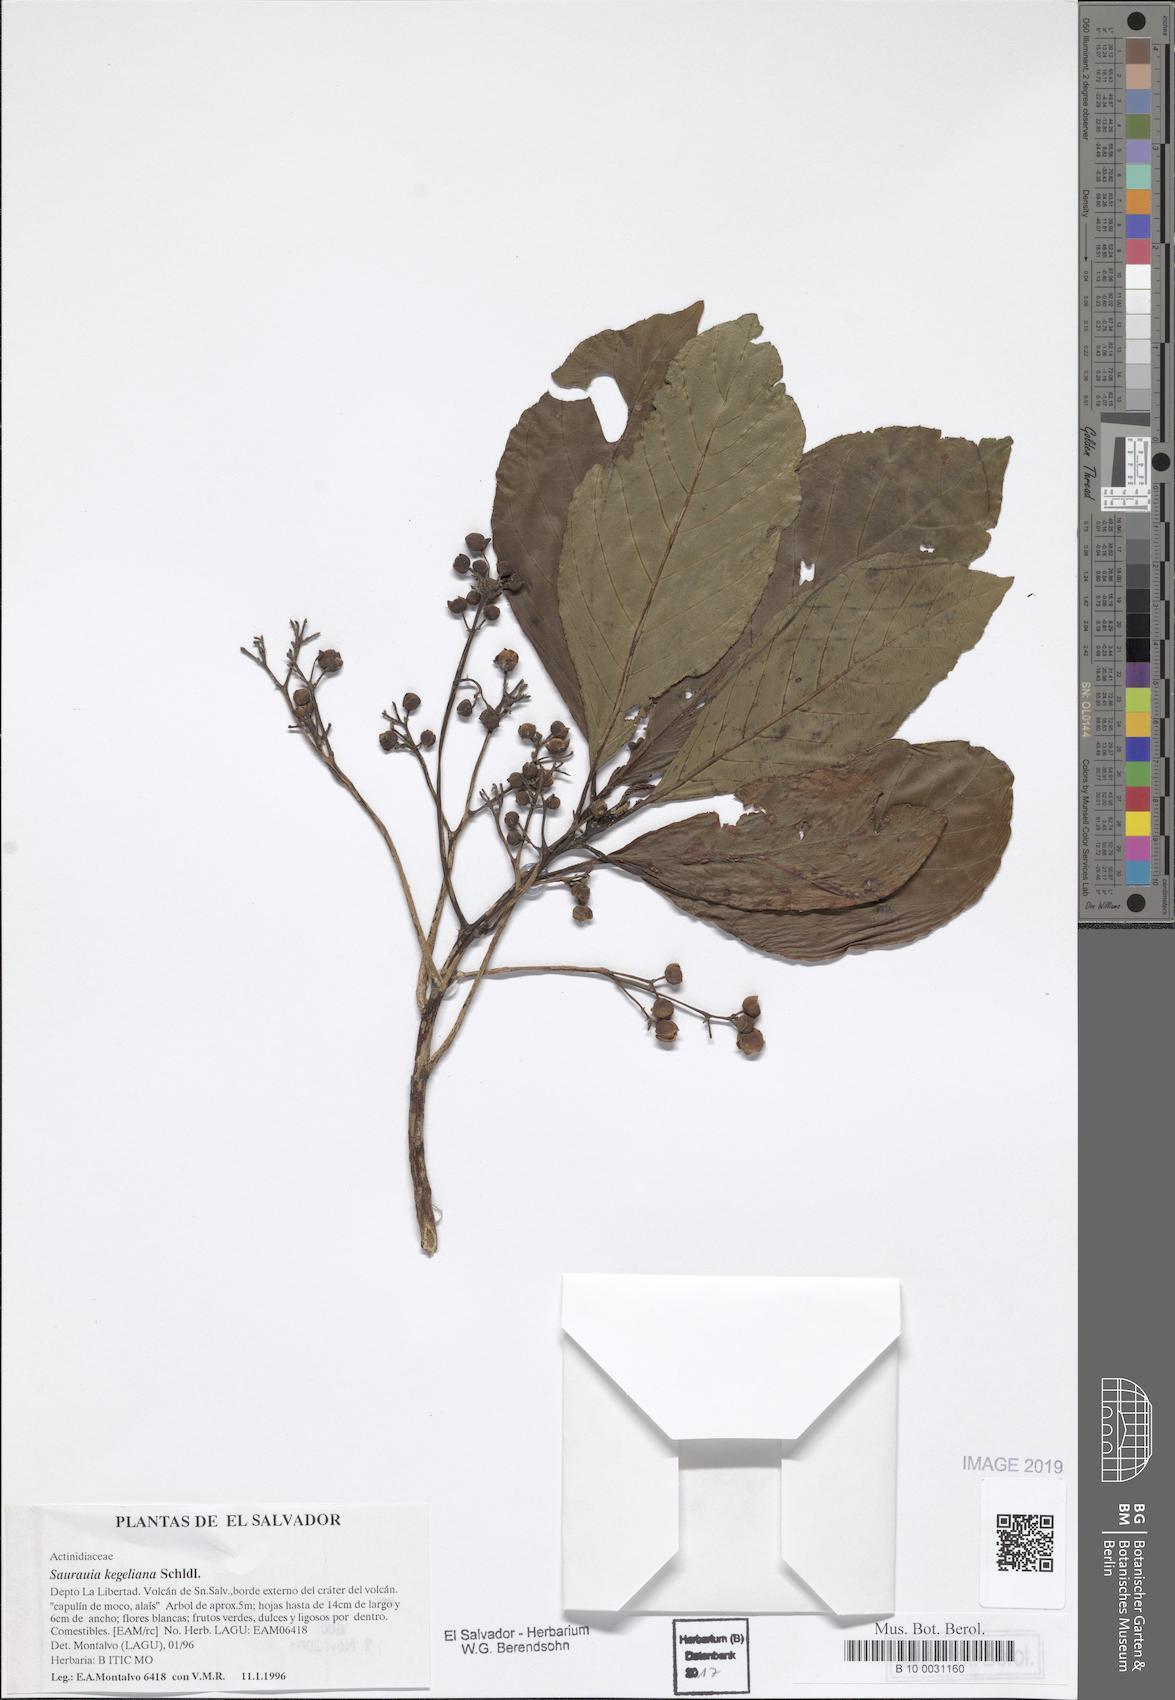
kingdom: Plantae
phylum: Tracheophyta
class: Magnoliopsida
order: Ericales
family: Actinidiaceae
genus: Saurauia
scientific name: Saurauia kegeliana
